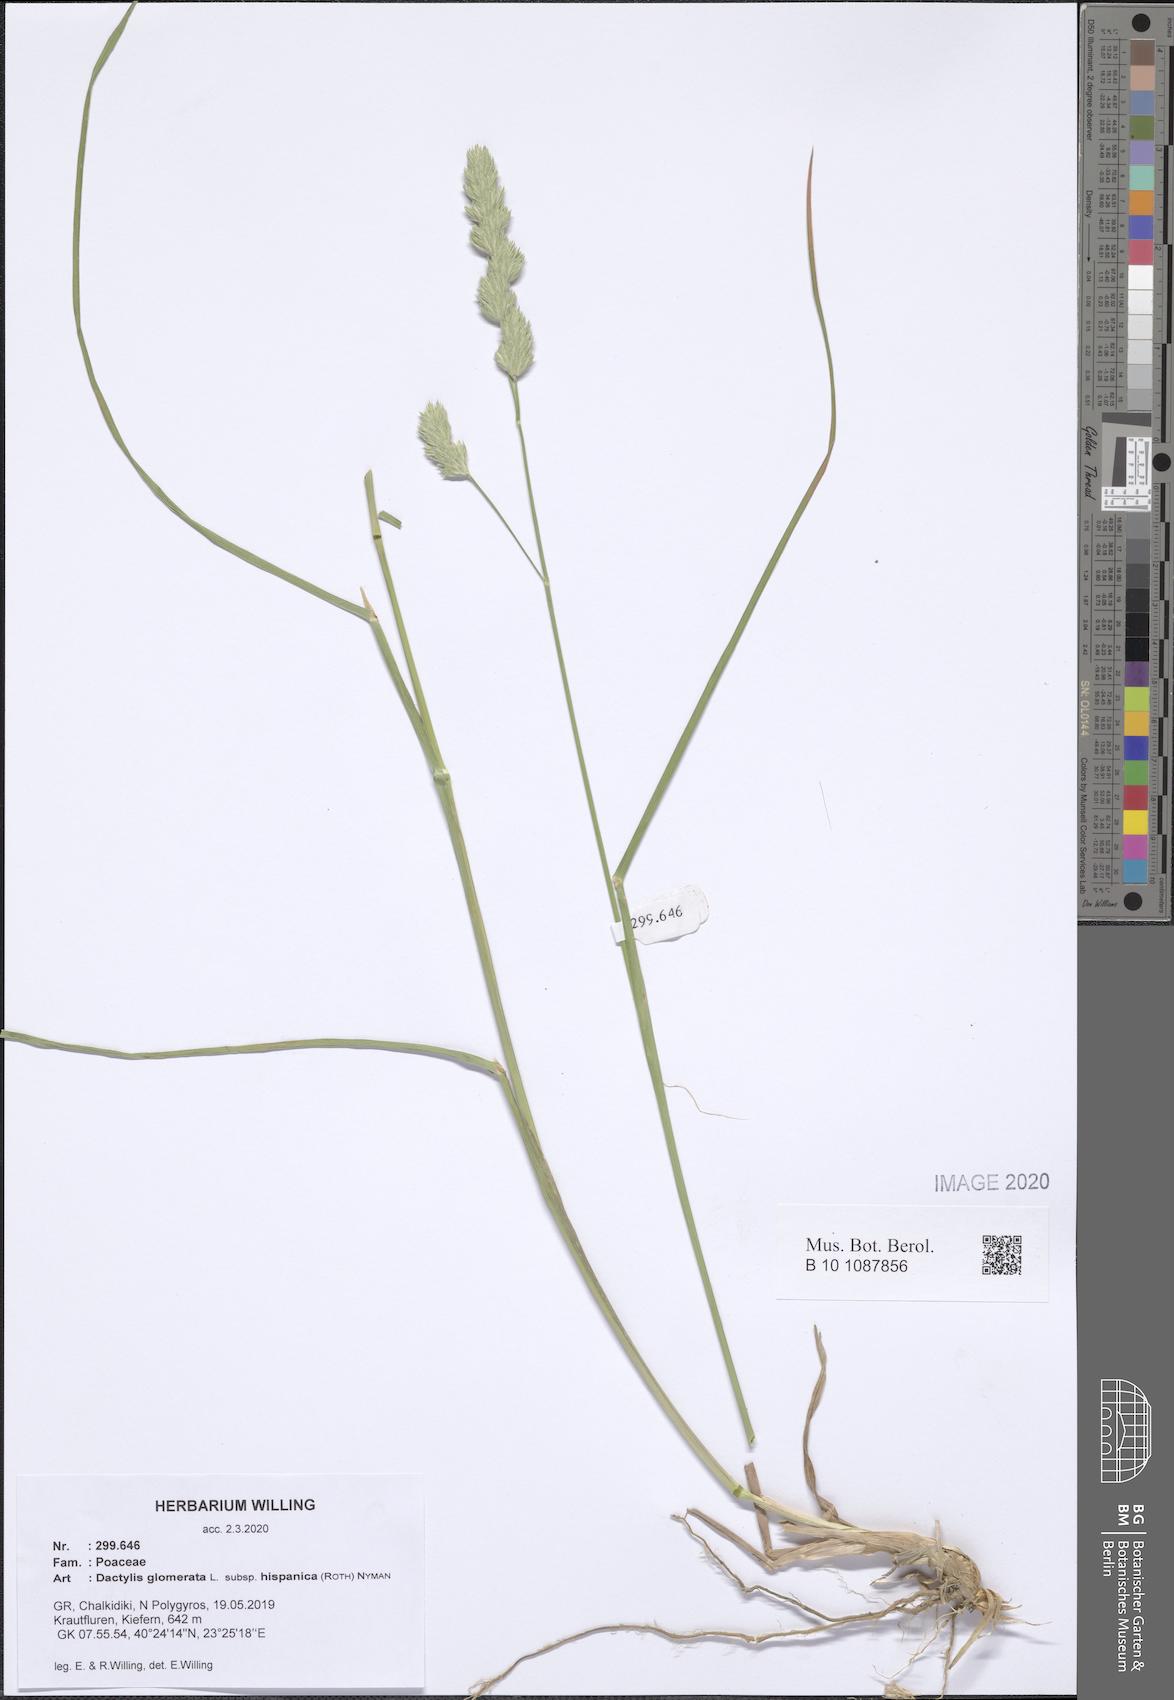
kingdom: Plantae
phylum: Tracheophyta
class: Liliopsida
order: Poales
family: Poaceae
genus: Dactylis
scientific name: Dactylis glomerata
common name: Orchardgrass
